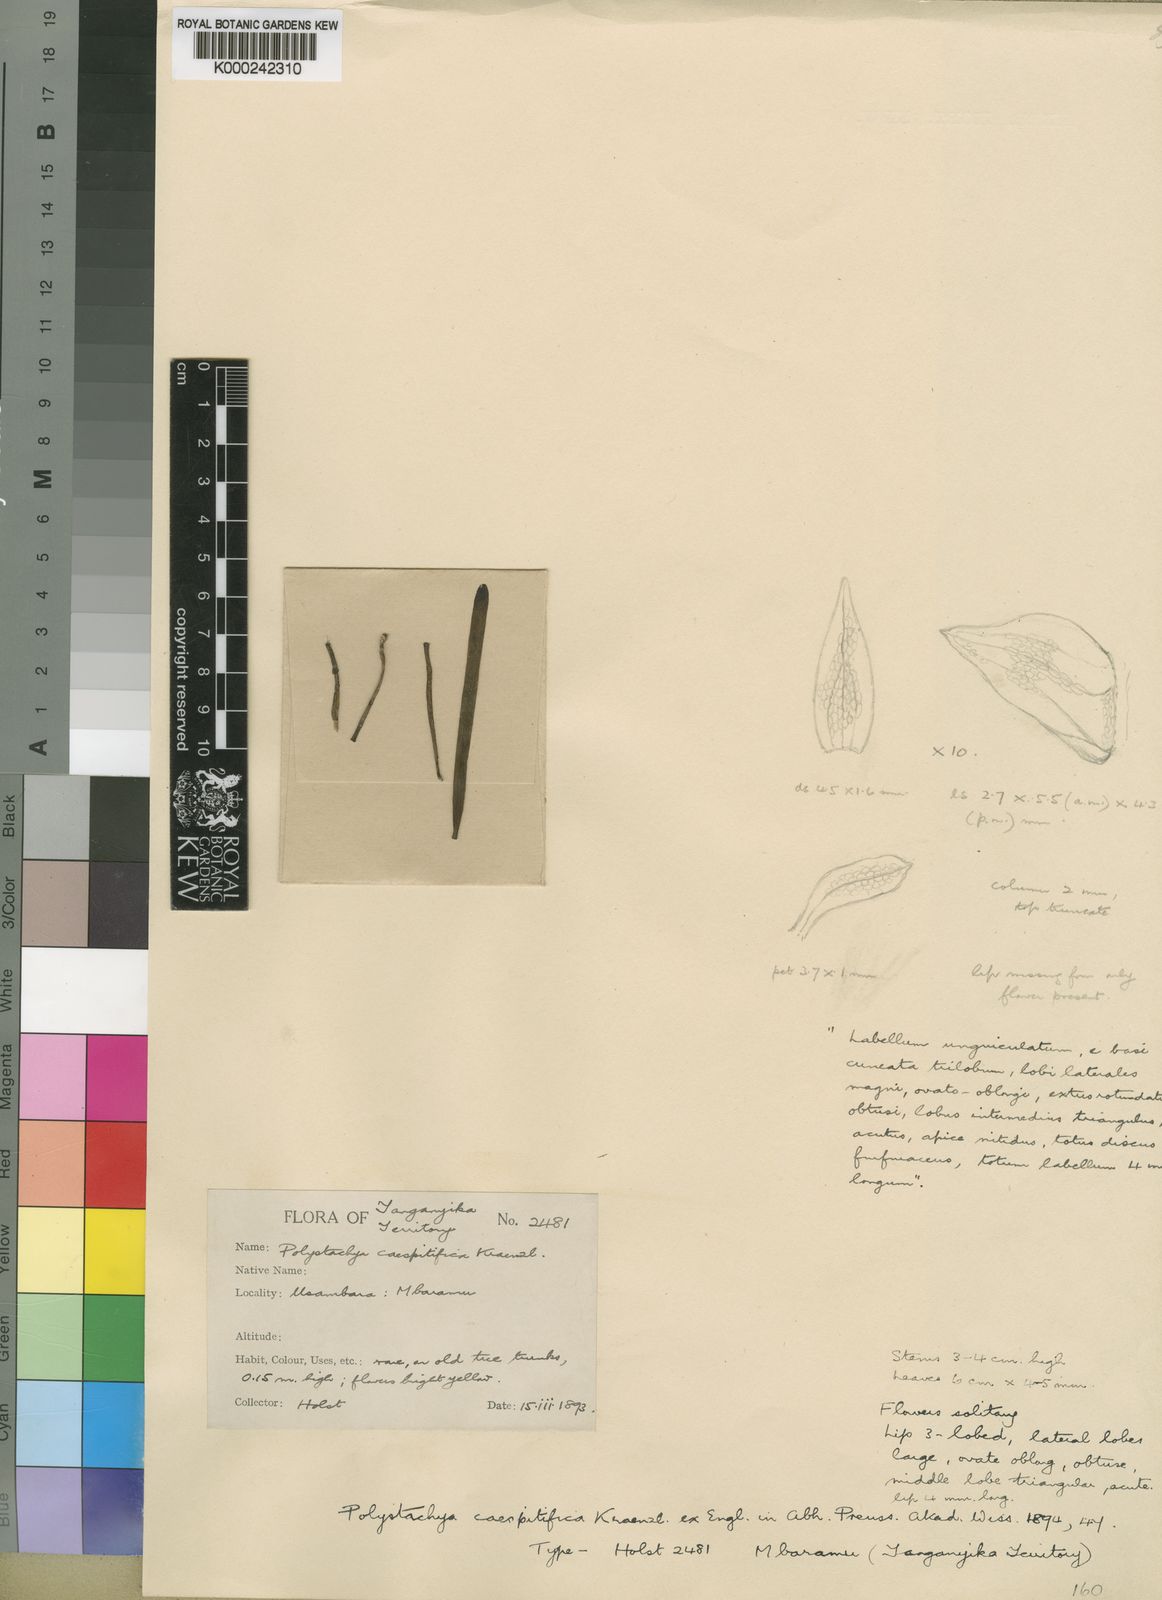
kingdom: Plantae
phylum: Tracheophyta
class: Liliopsida
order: Asparagales
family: Orchidaceae
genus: Polystachya
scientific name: Polystachya caespitifica
